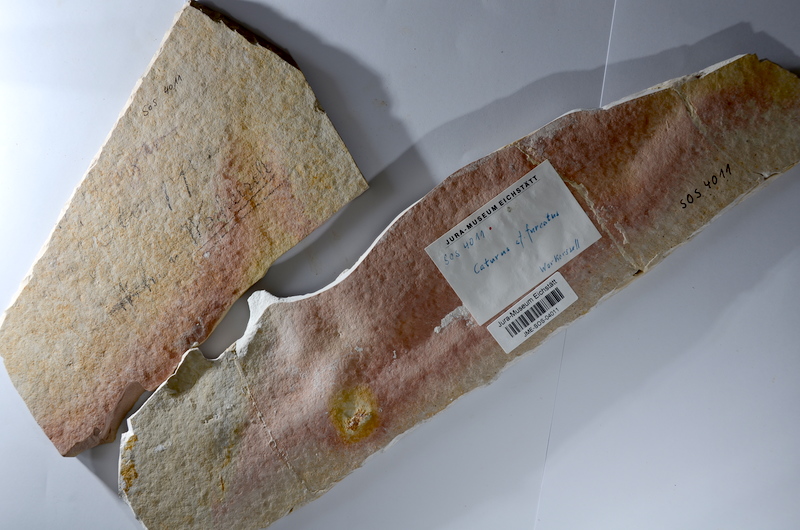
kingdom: Animalia
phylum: Chordata
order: Amiiformes
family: Caturidae
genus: Caturus
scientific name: Caturus furcatus
